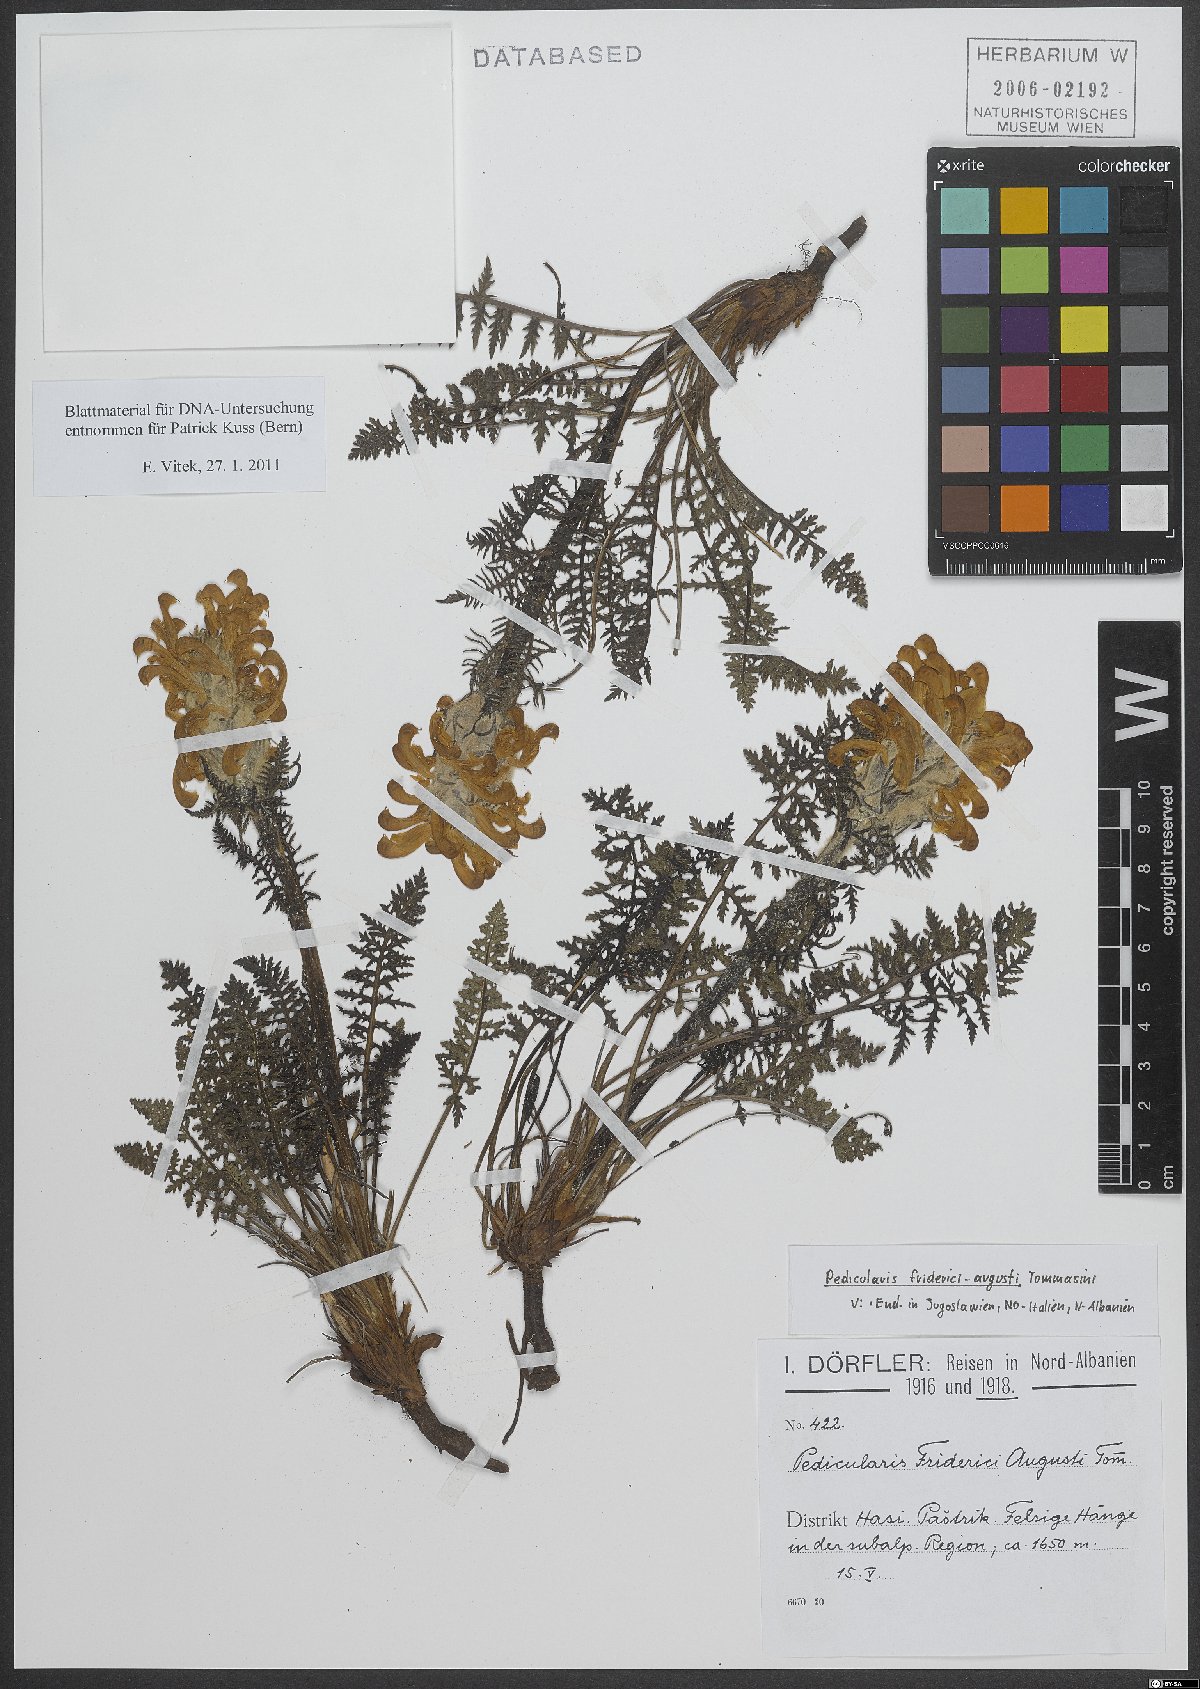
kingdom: Plantae
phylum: Tracheophyta
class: Magnoliopsida
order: Lamiales
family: Orobanchaceae
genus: Pedicularis
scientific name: Pedicularis friderici-augusti
